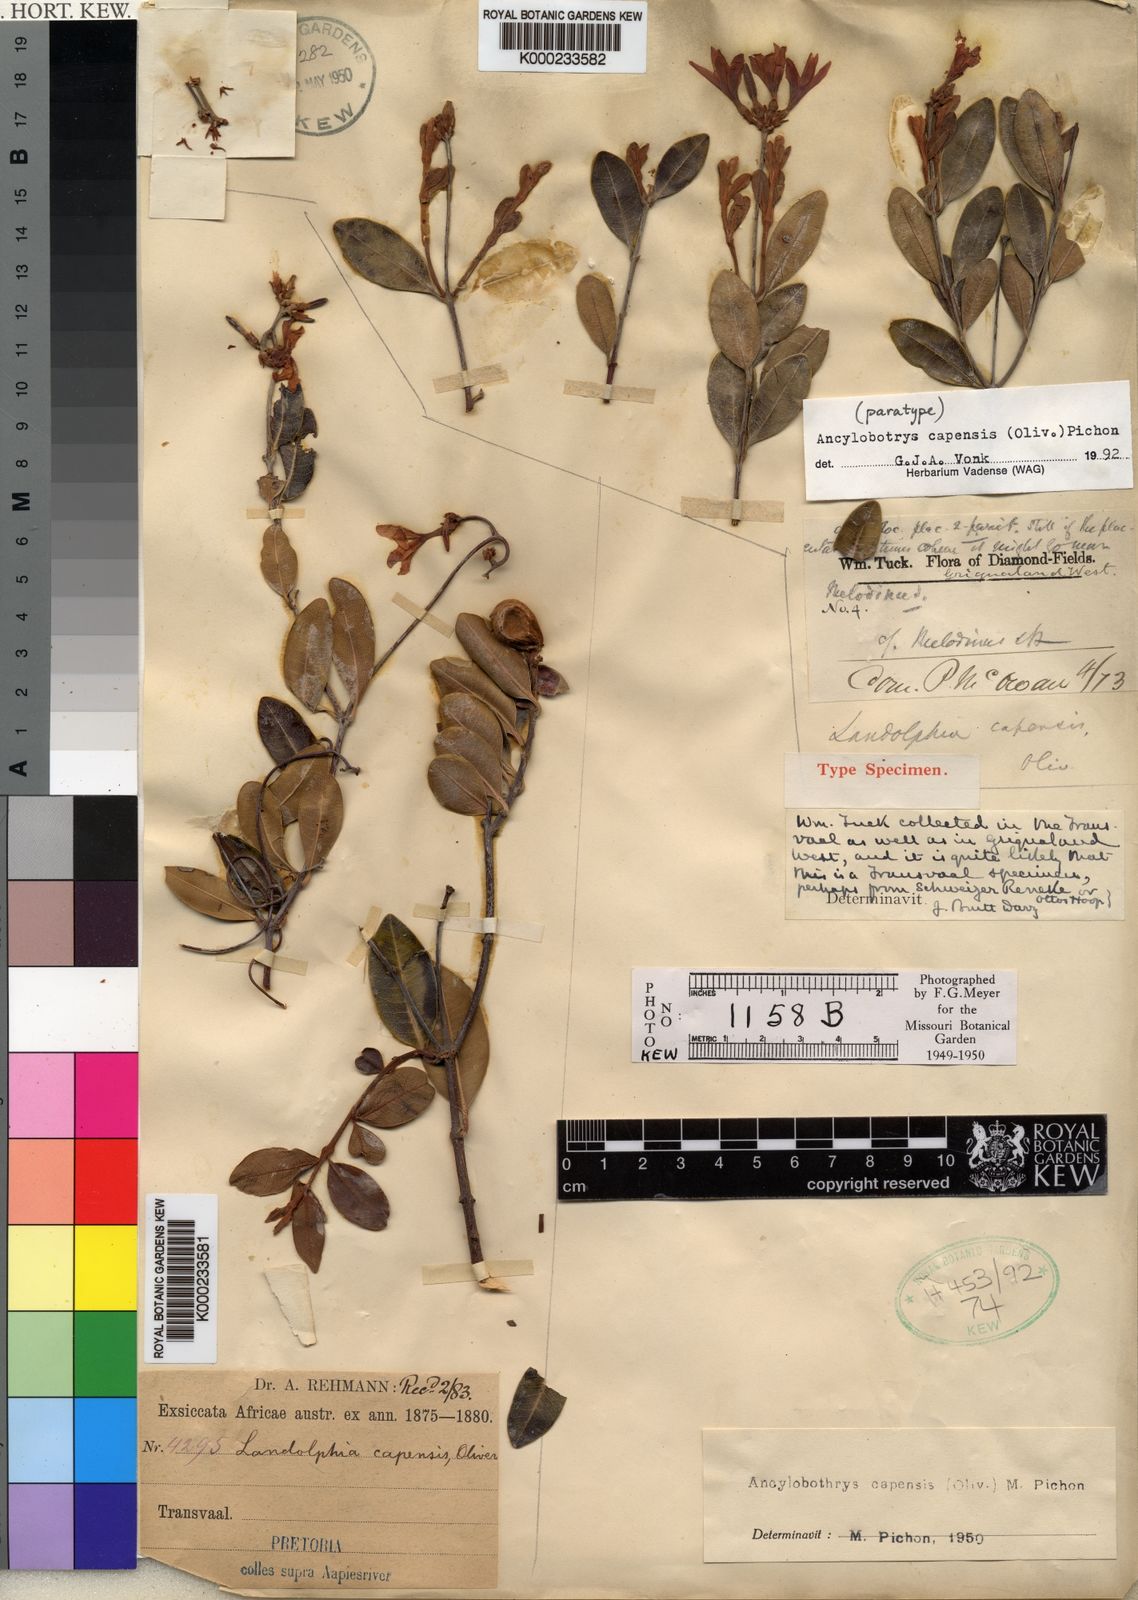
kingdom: Plantae
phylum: Tracheophyta
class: Magnoliopsida
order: Gentianales
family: Apocynaceae
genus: Ancylobothrys
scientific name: Ancylobothrys capensis
